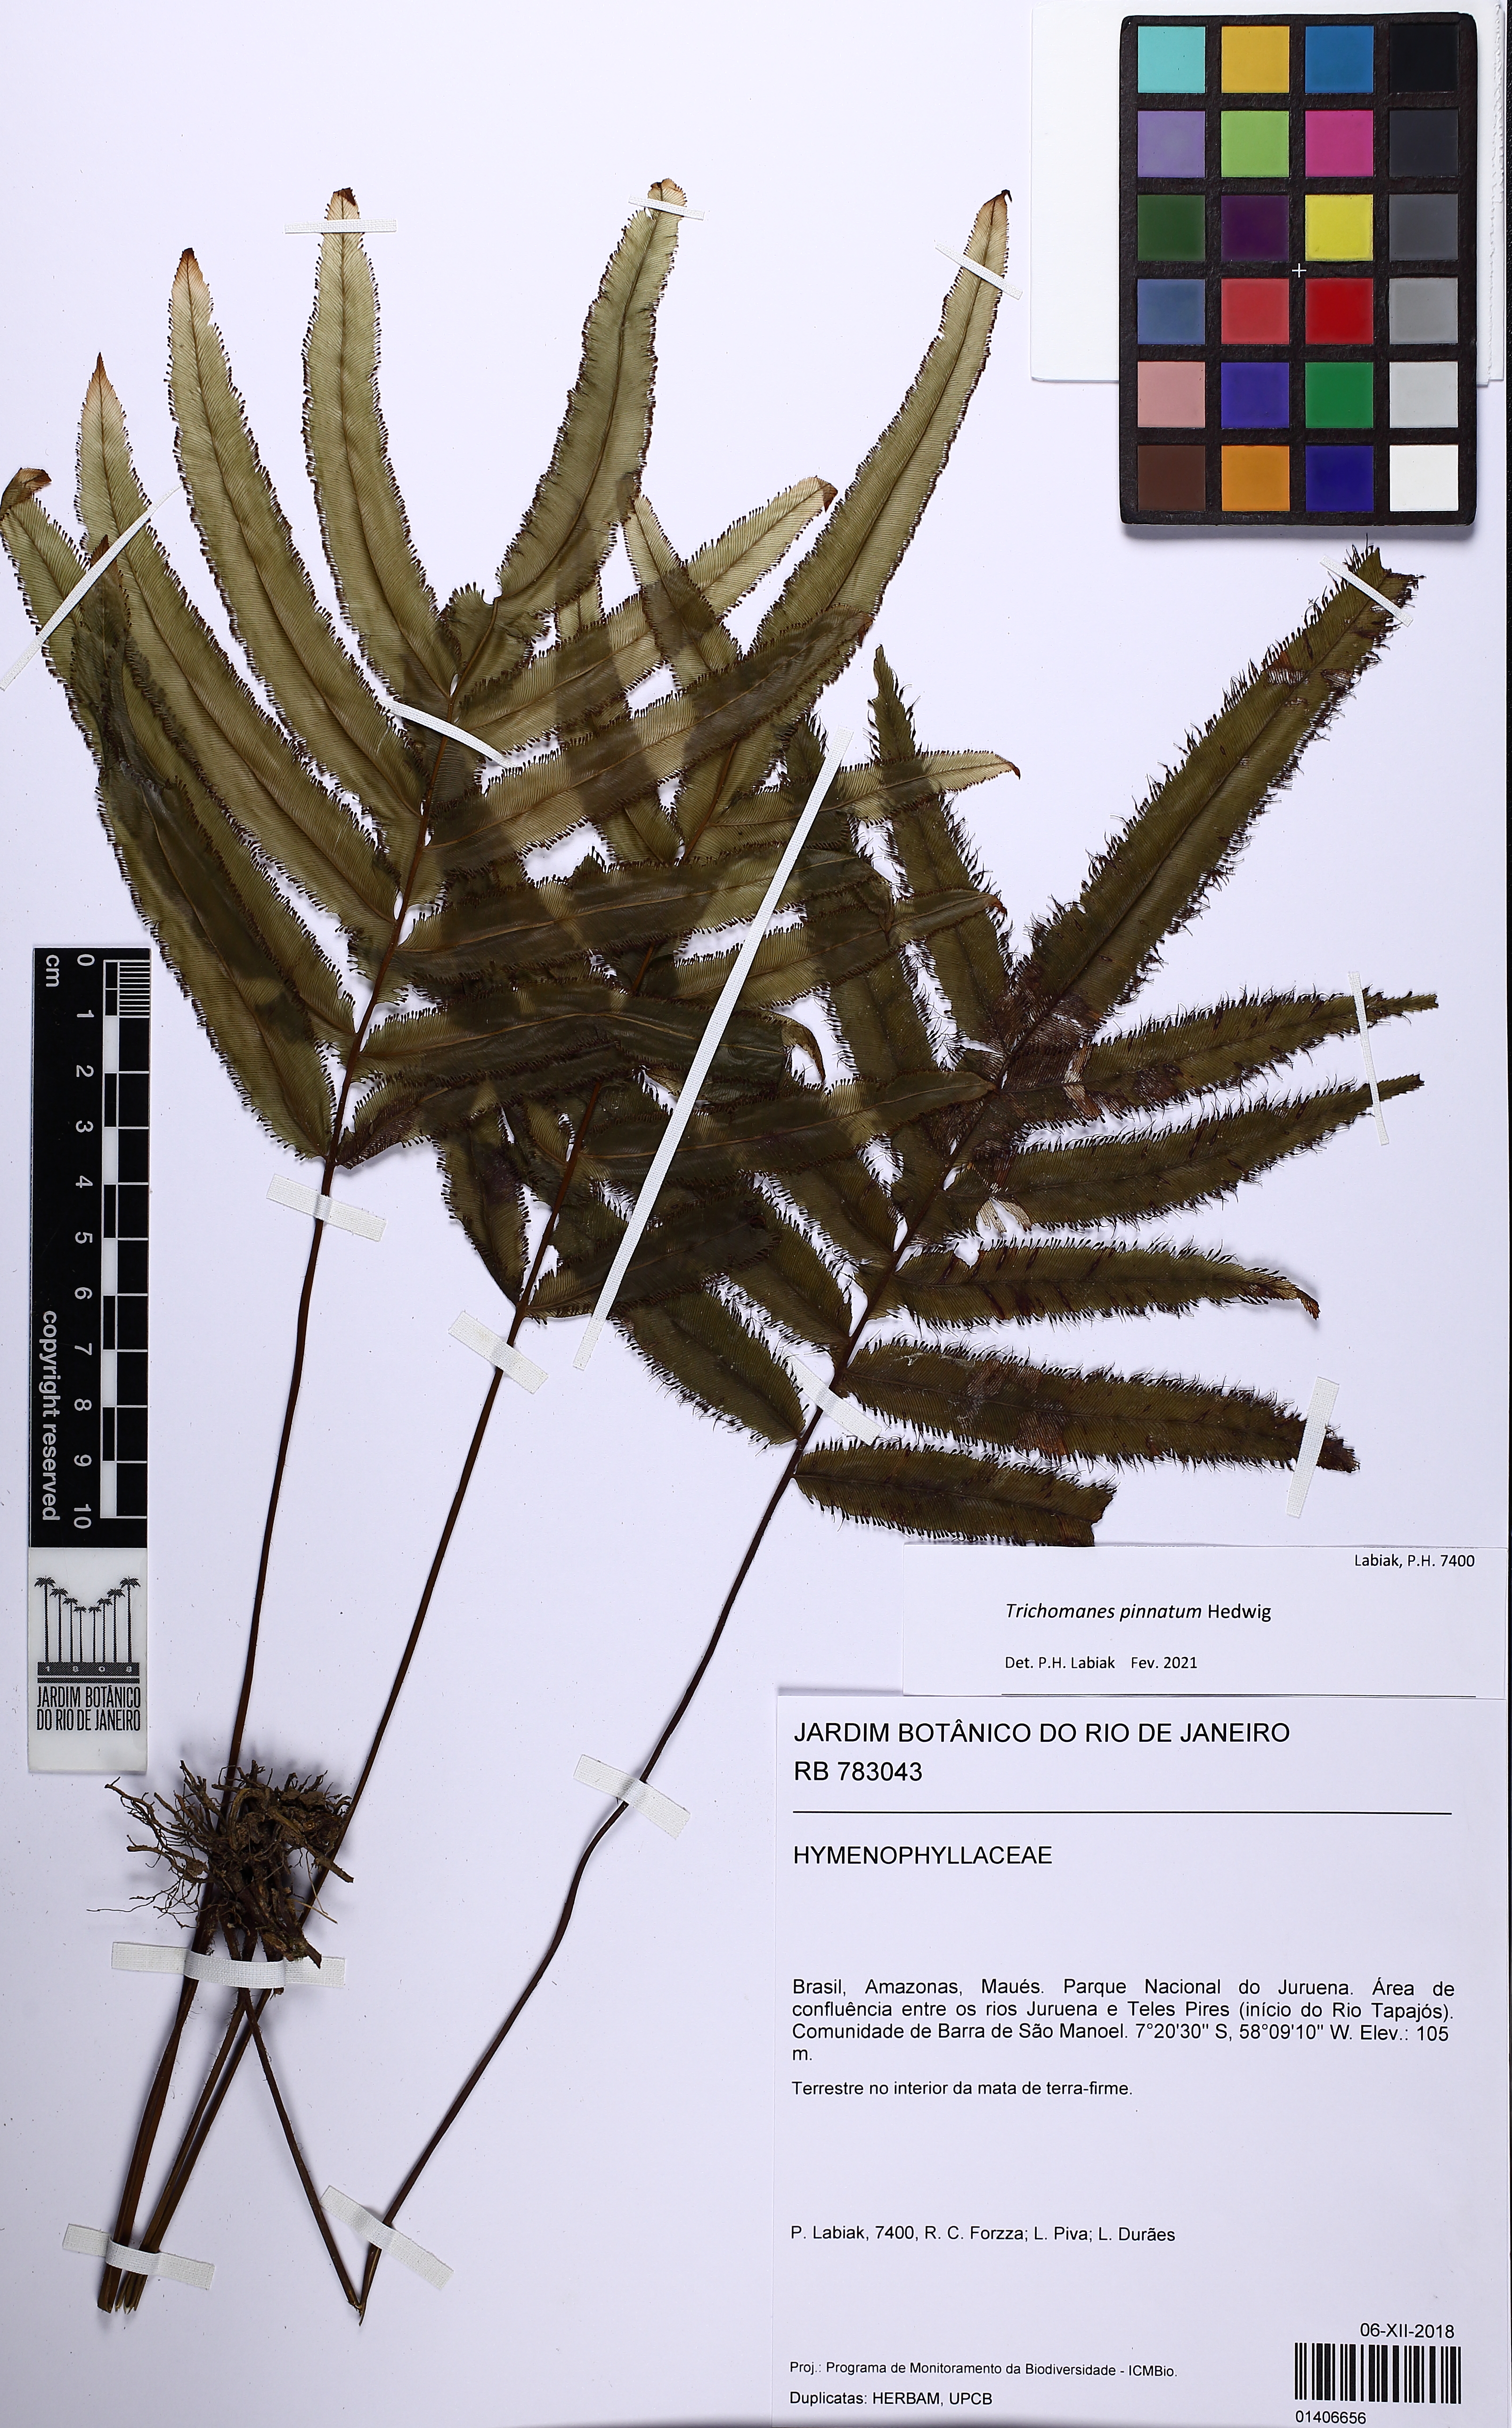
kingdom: Plantae
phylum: Tracheophyta
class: Polypodiopsida
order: Hymenophyllales
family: Hymenophyllaceae
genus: Trichomanes
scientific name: Trichomanes pinnatum
